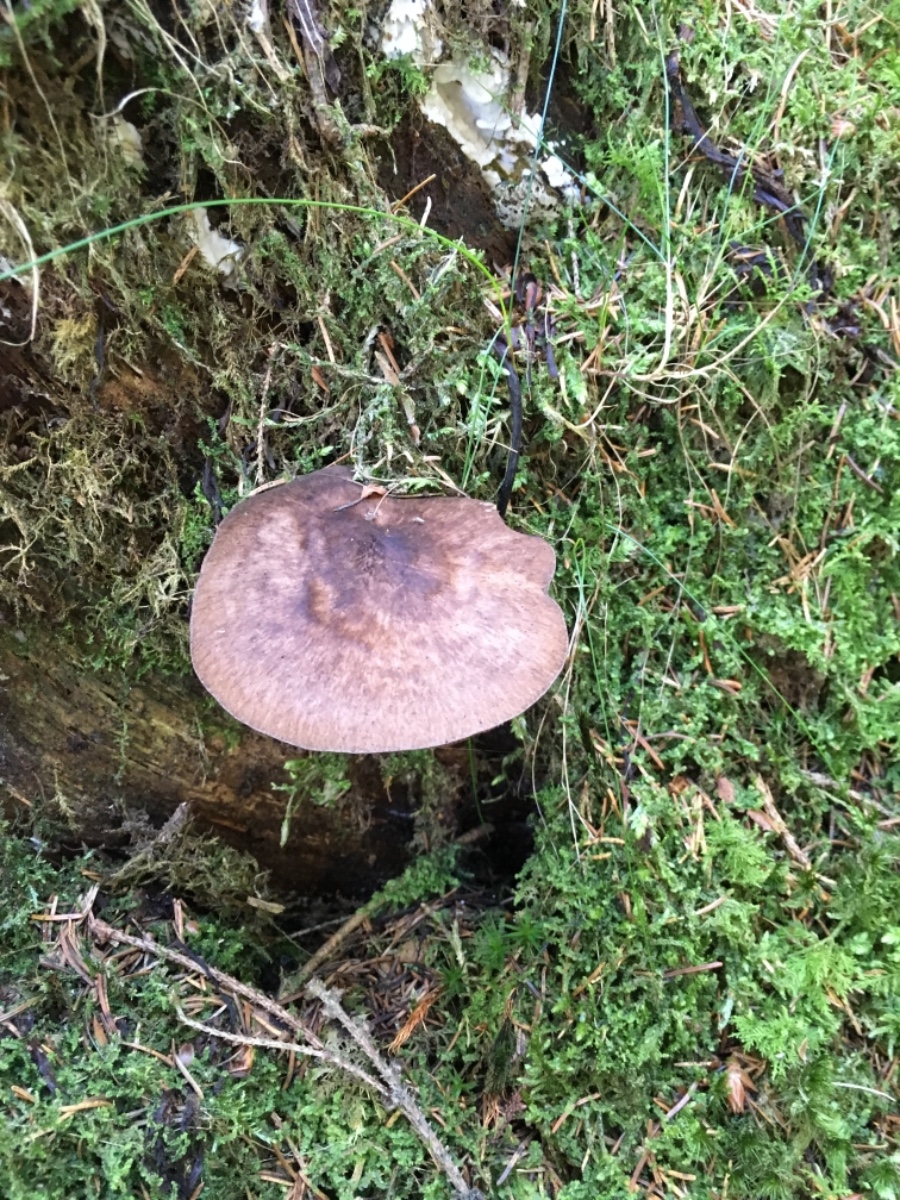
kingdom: Fungi
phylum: Basidiomycota
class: Agaricomycetes
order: Agaricales
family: Pluteaceae
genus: Pluteus
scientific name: Pluteus atromarginatus
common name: sortrandet skærmhat
